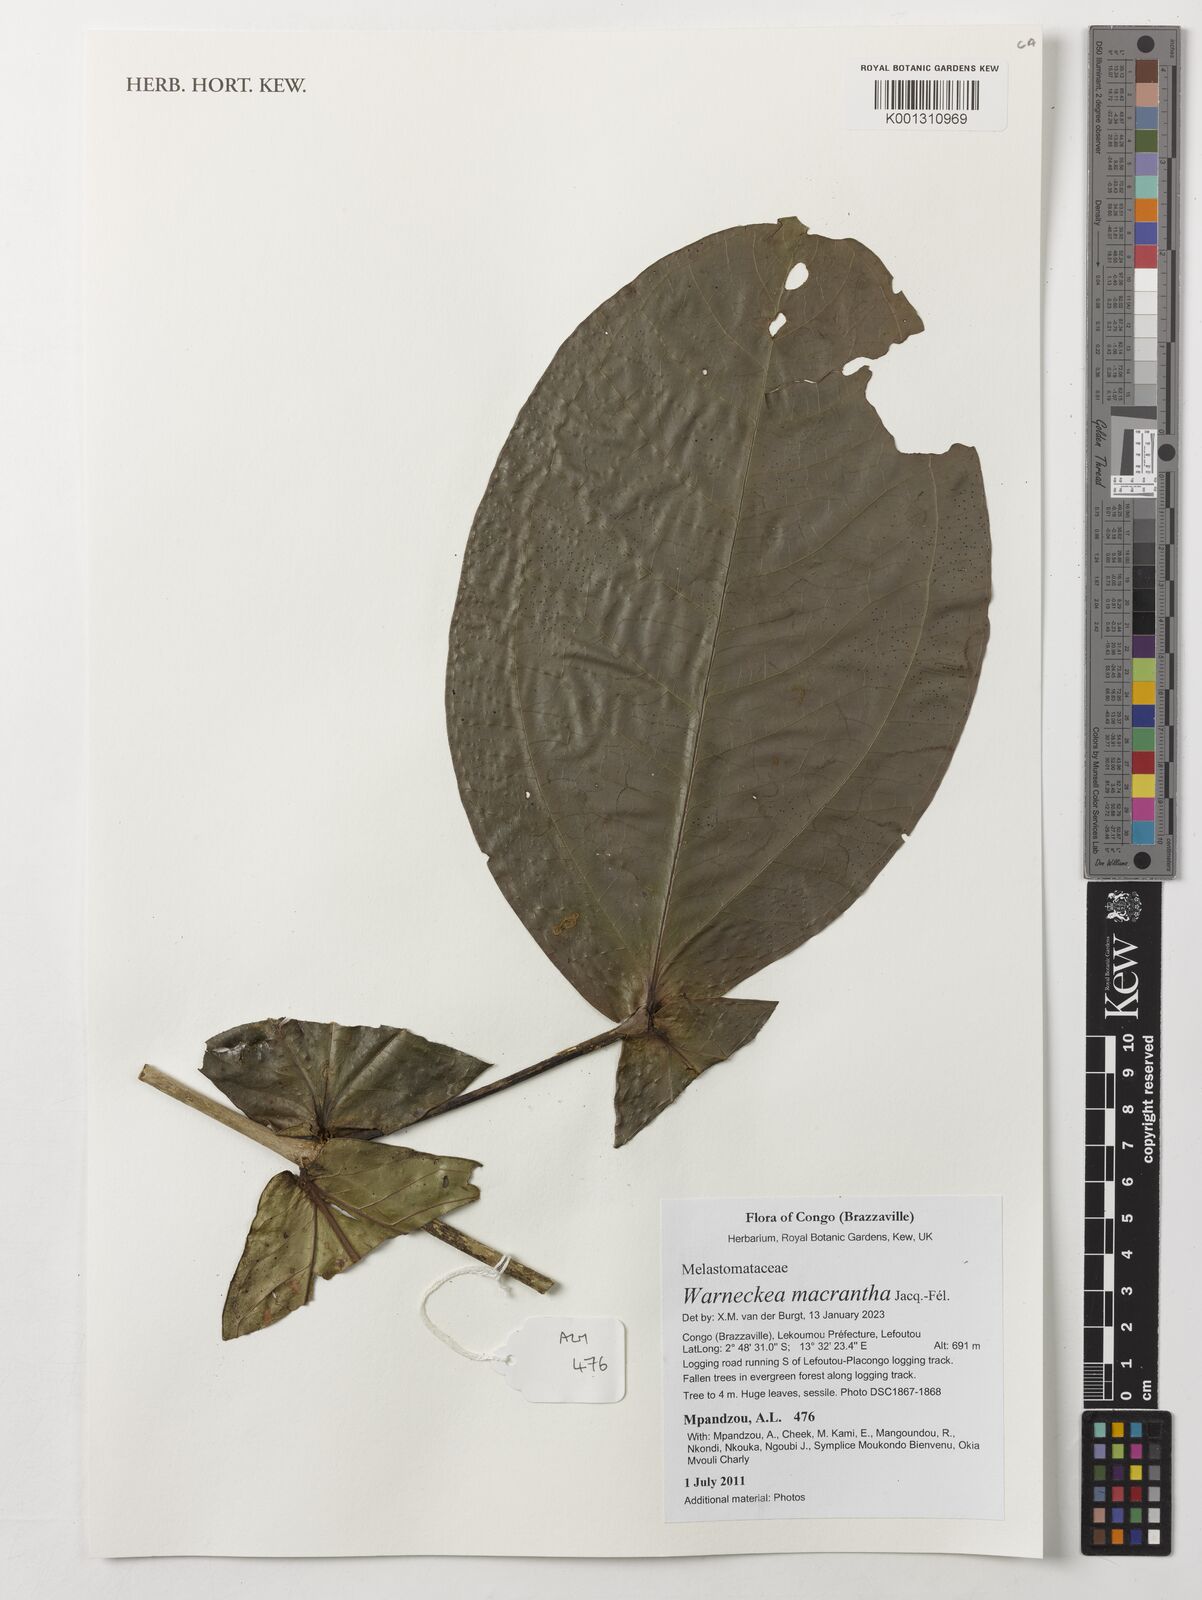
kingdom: Plantae
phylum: Tracheophyta
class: Magnoliopsida
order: Myrtales
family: Melastomataceae
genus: Warneckea
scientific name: Warneckea macrantha
